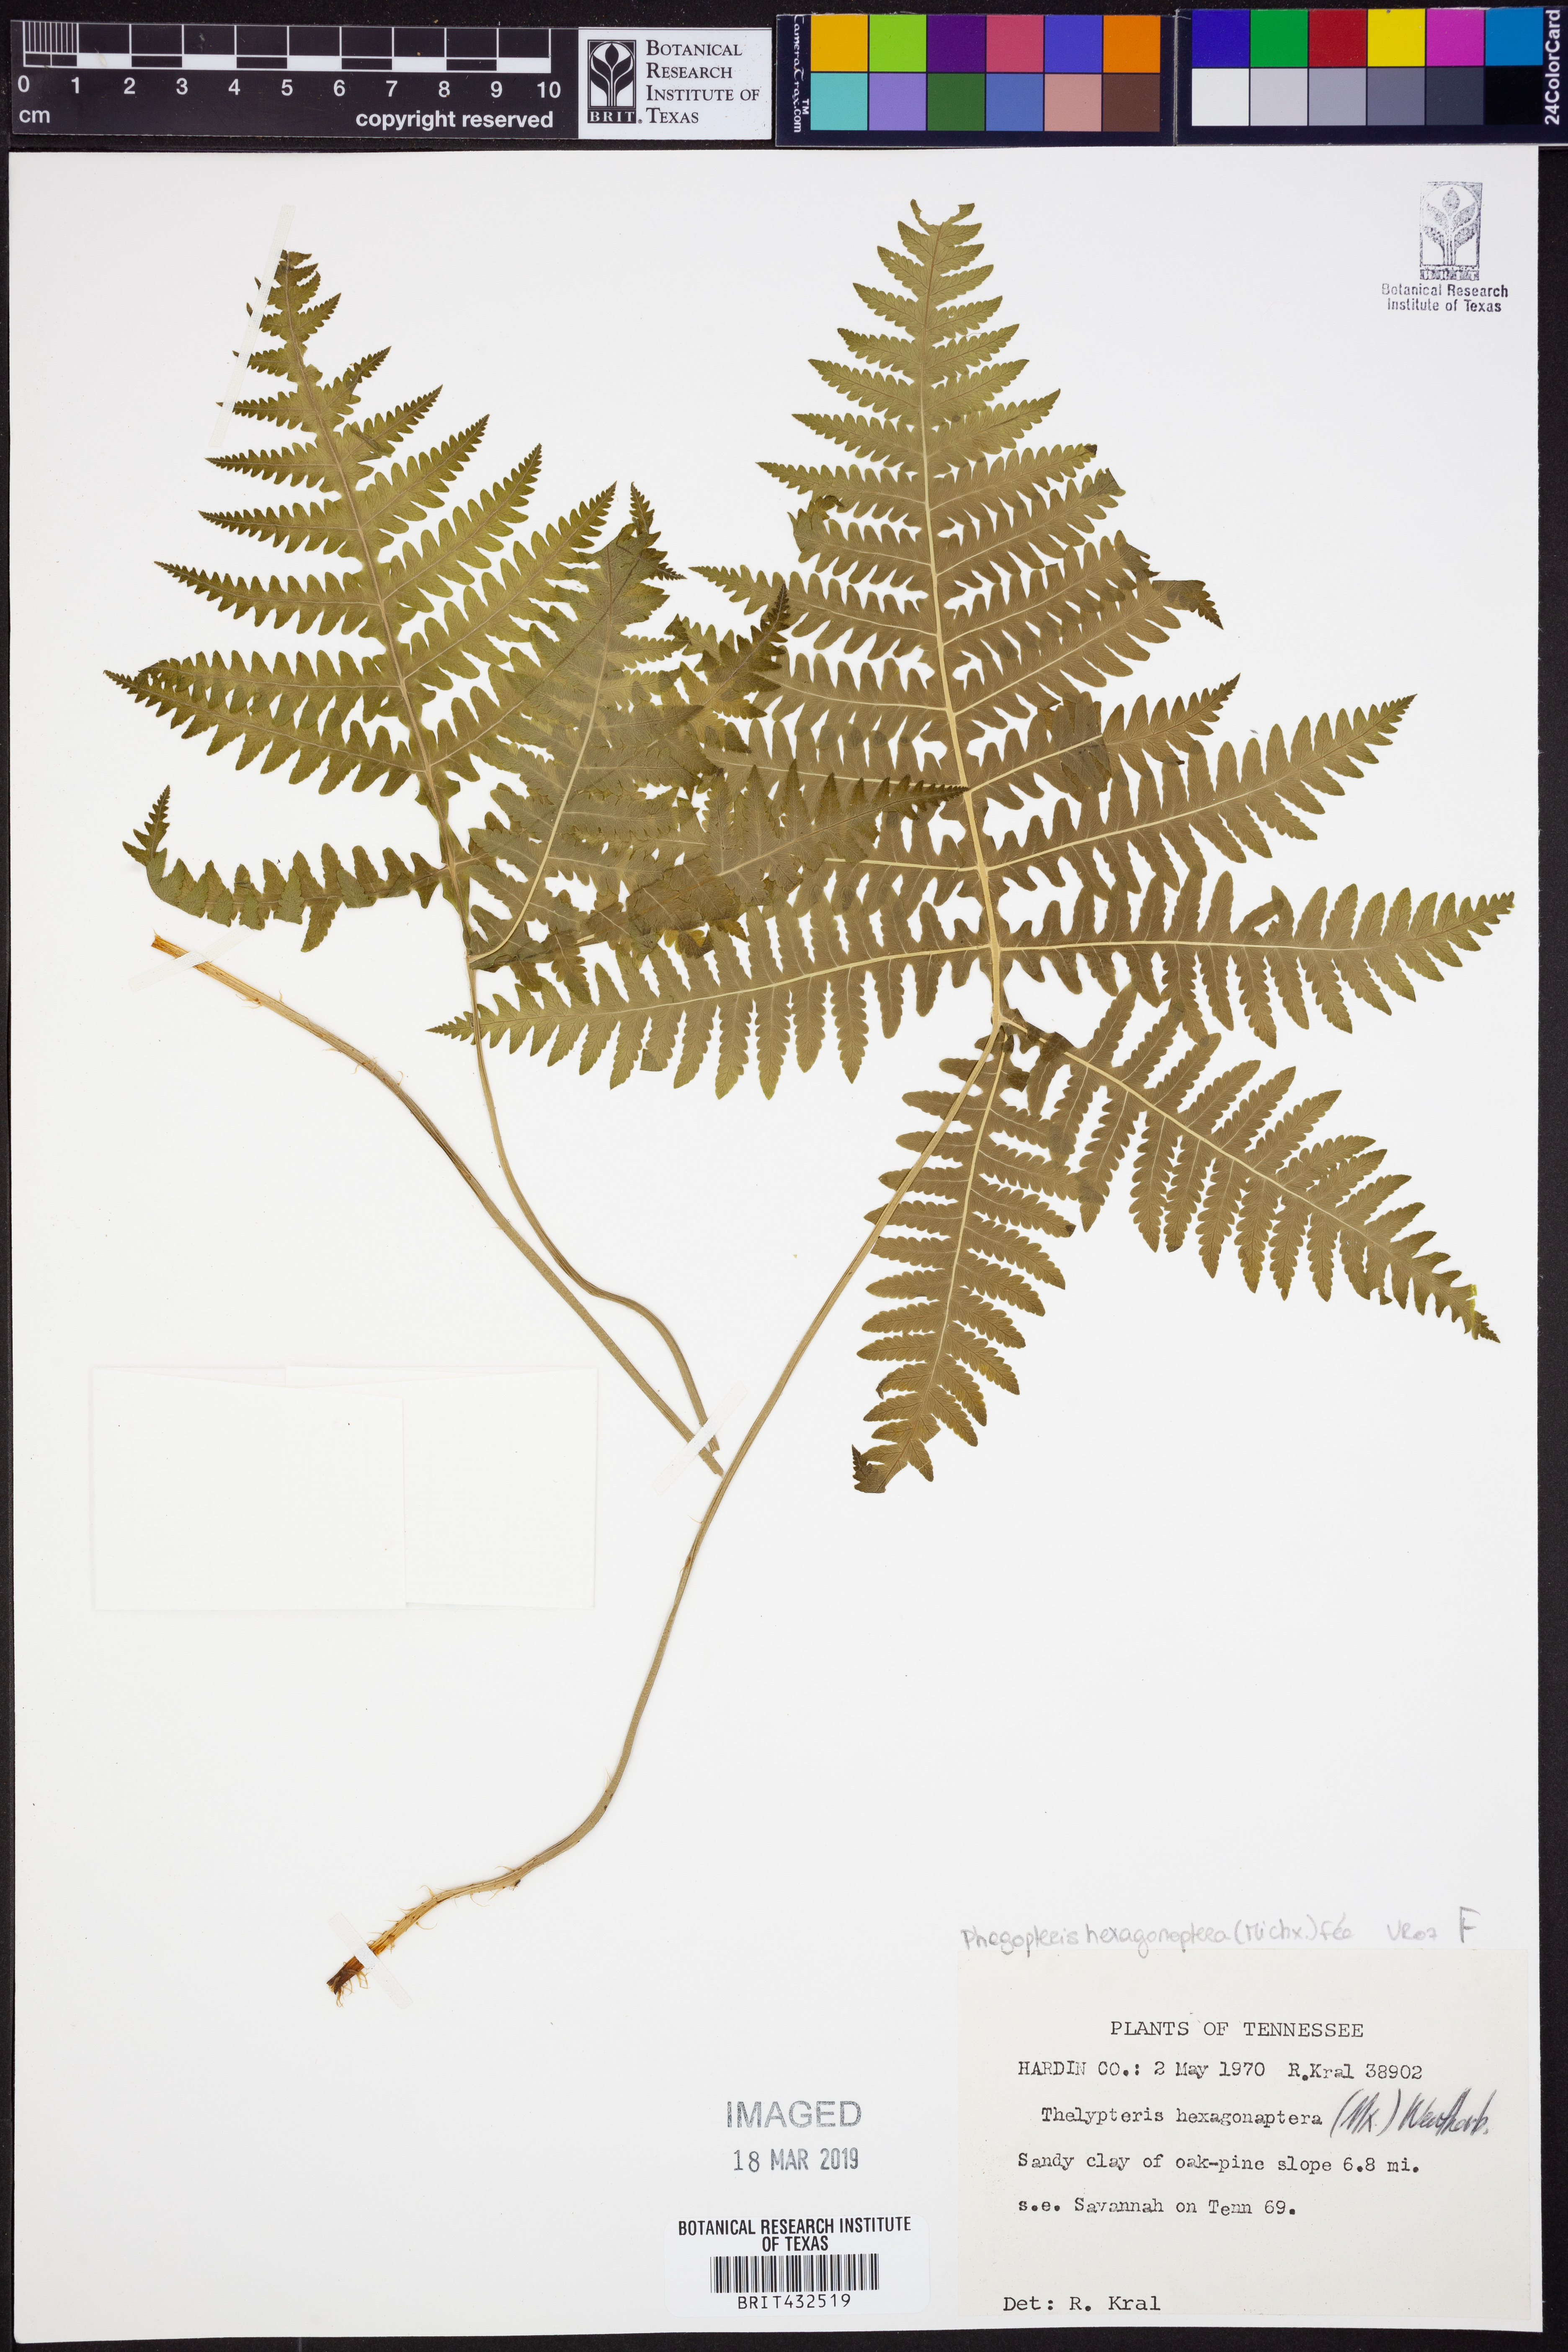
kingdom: Plantae
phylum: Tracheophyta
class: Polypodiopsida
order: Polypodiales
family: Thelypteridaceae
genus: Phegopteris
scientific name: Phegopteris hexagonoptera
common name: Broad beech fern
